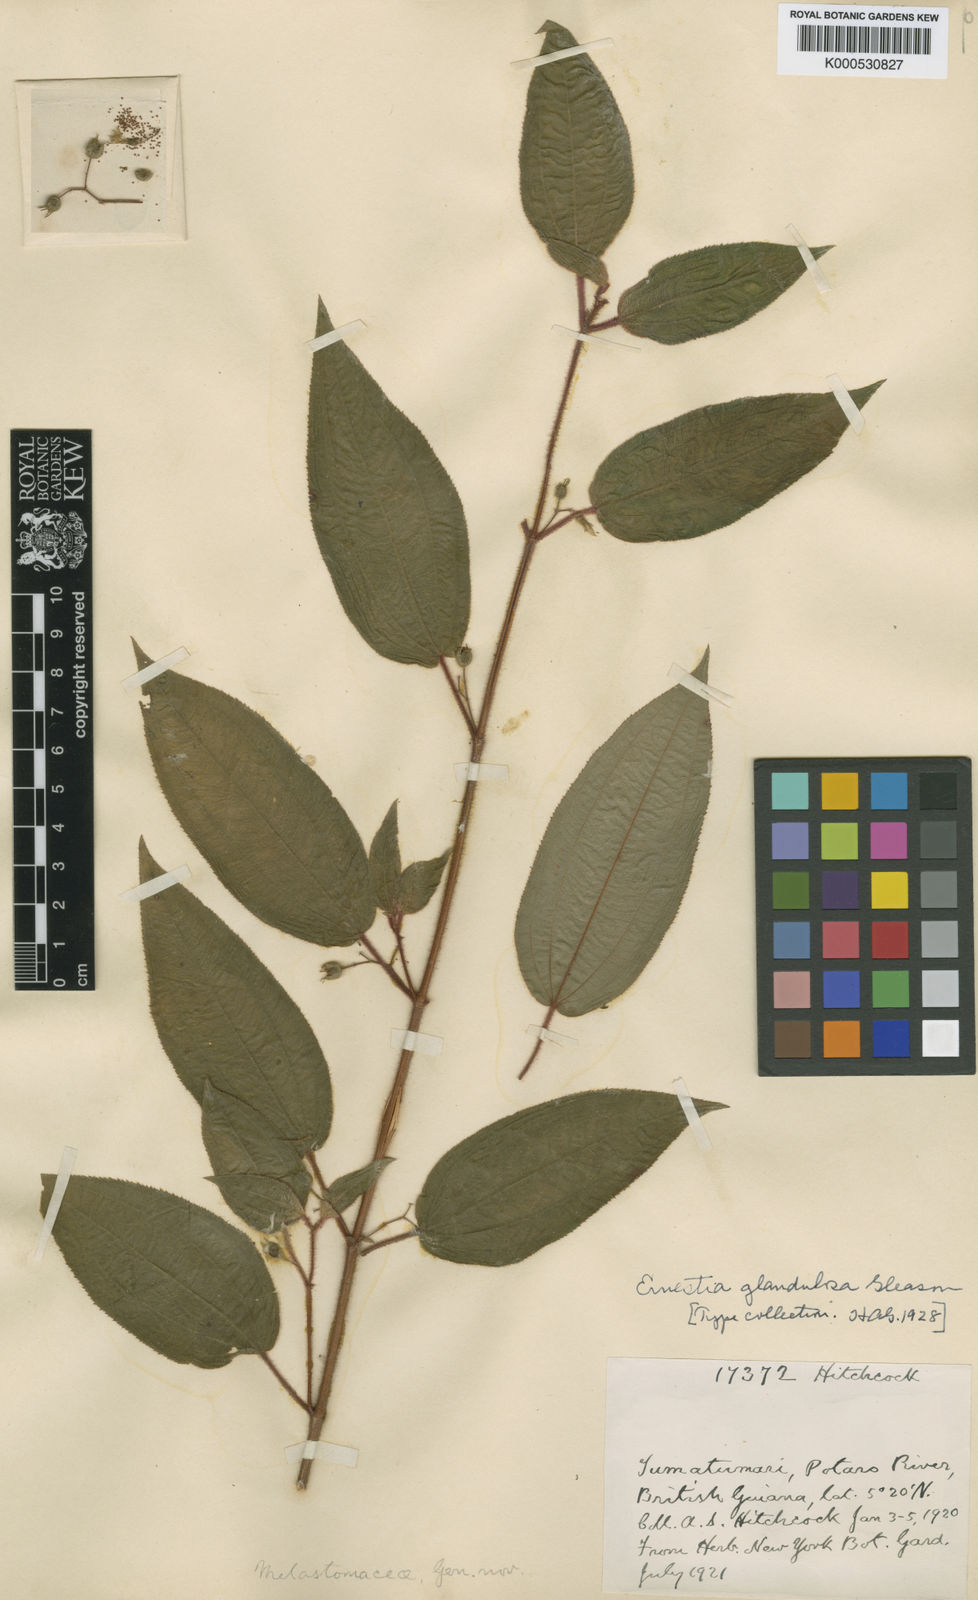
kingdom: Plantae
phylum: Tracheophyta
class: Magnoliopsida
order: Myrtales
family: Melastomataceae
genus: Pseudoernestia
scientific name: Pseudoernestia glandulosa
